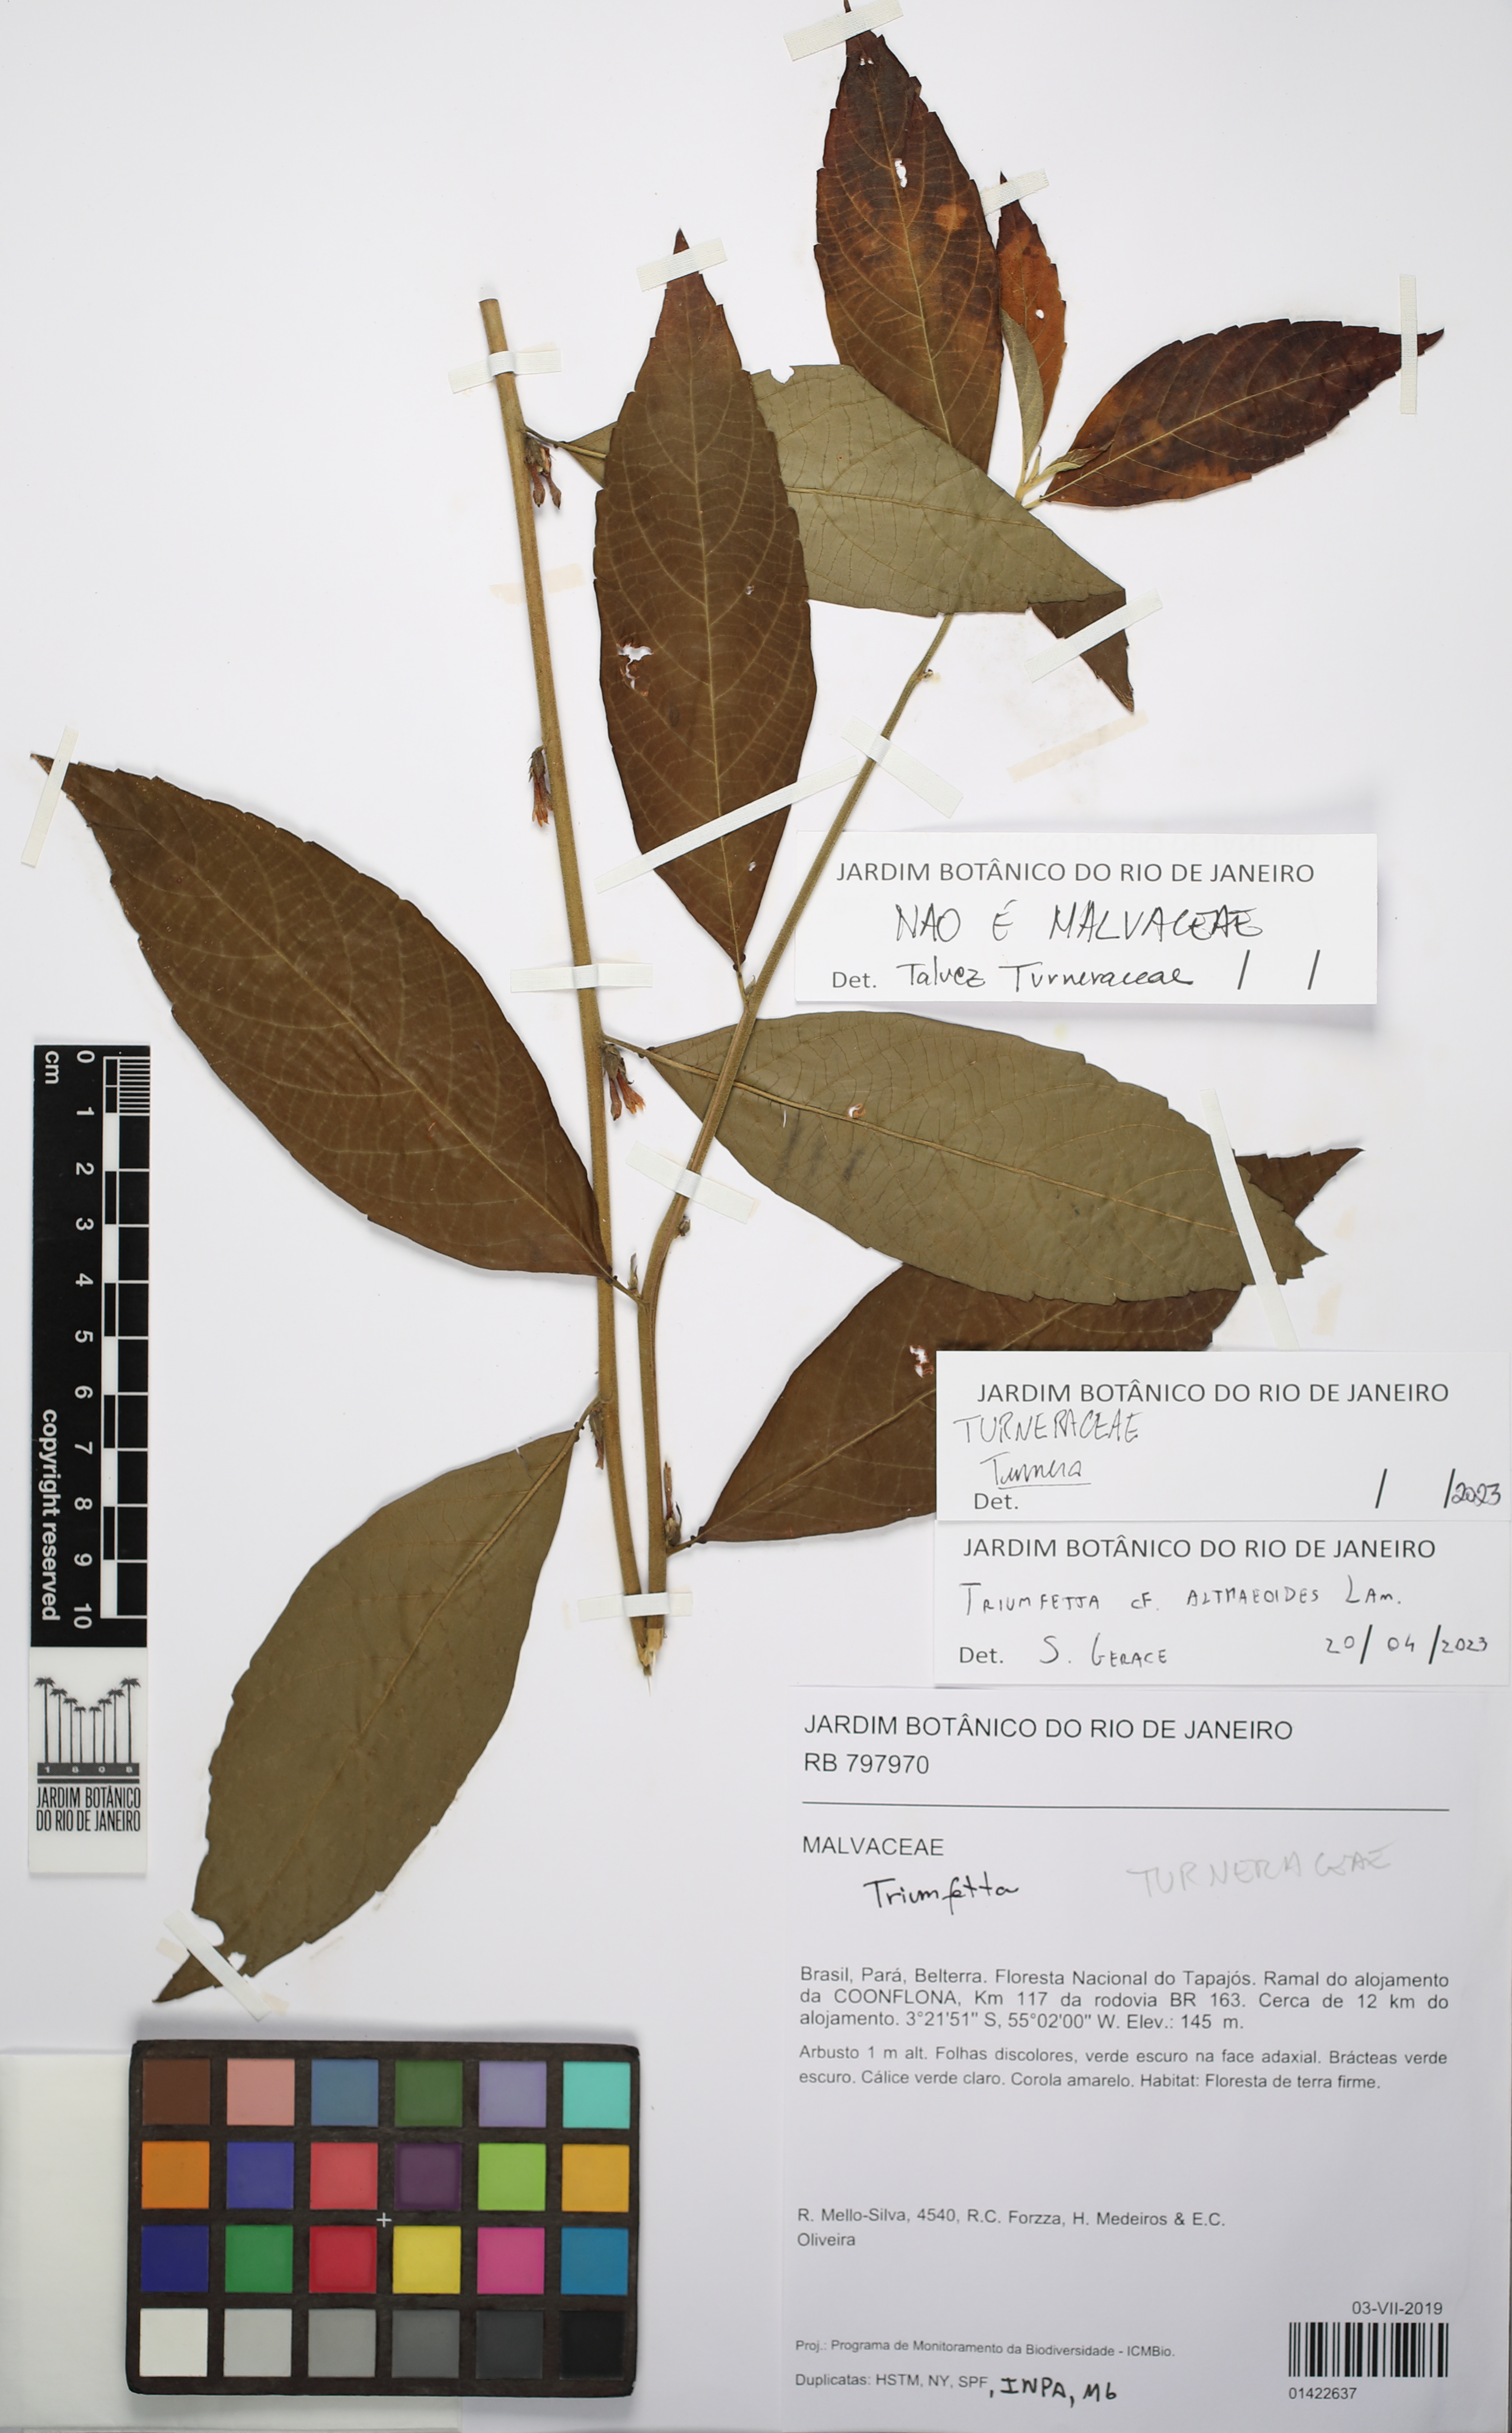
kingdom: Plantae
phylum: Tracheophyta
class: Magnoliopsida
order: Malpighiales
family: Turneraceae
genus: Turnera
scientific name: Turnera
